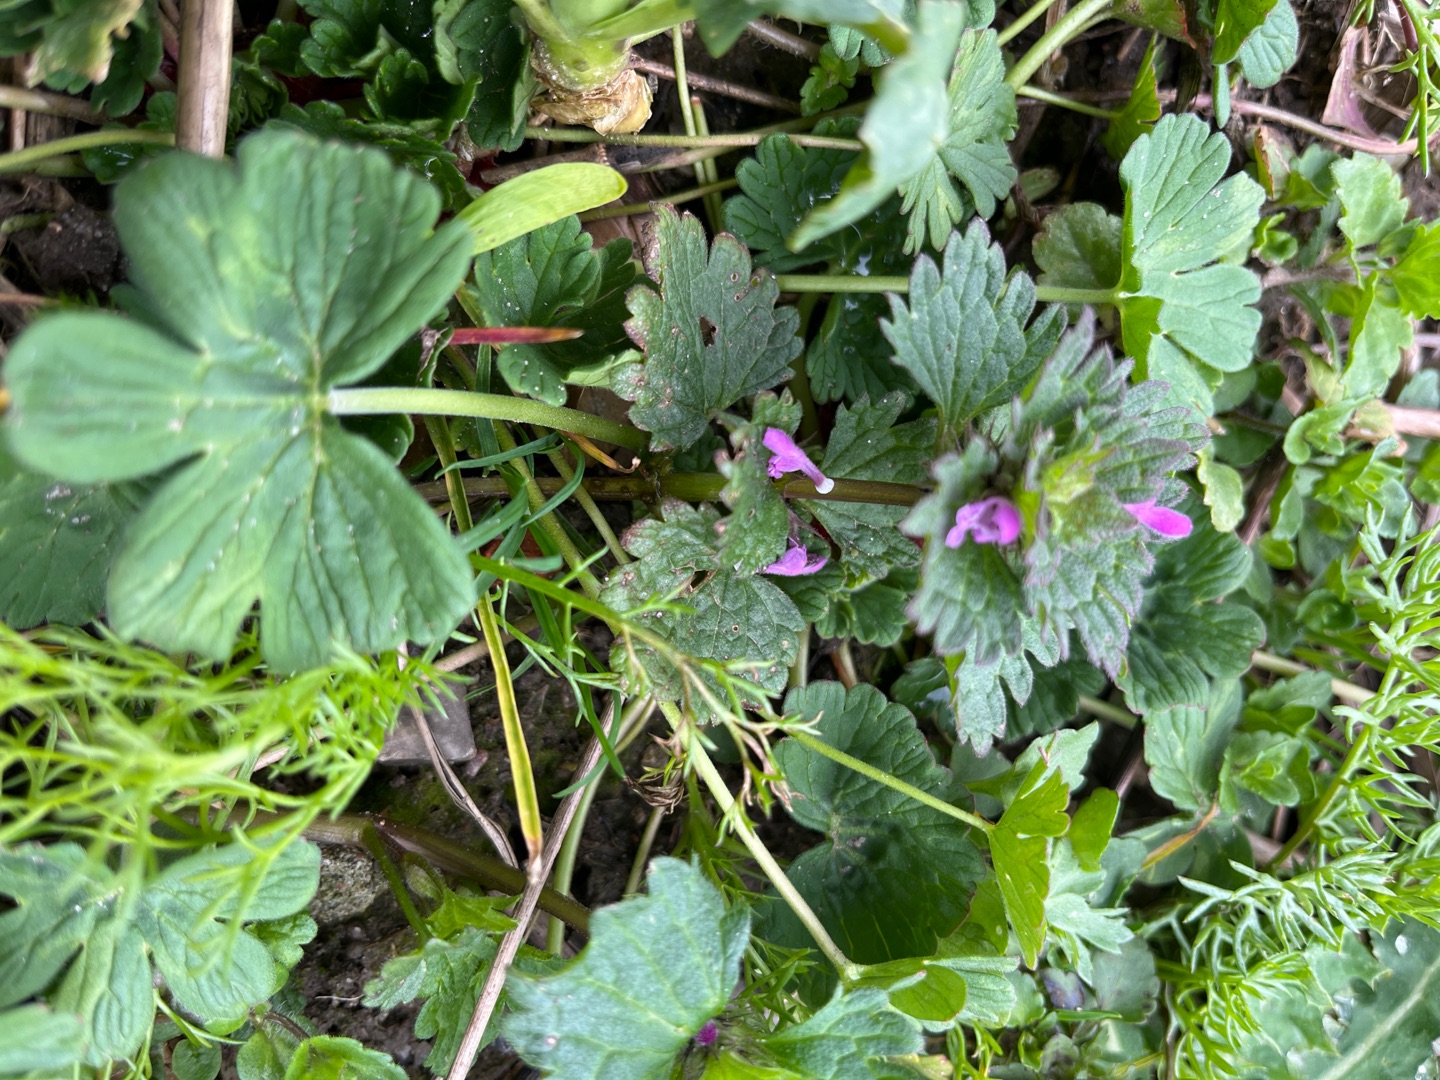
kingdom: Plantae
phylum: Tracheophyta
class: Magnoliopsida
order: Lamiales
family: Lamiaceae
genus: Lamium
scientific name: Lamium hybridum
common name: Fliget tvetand
